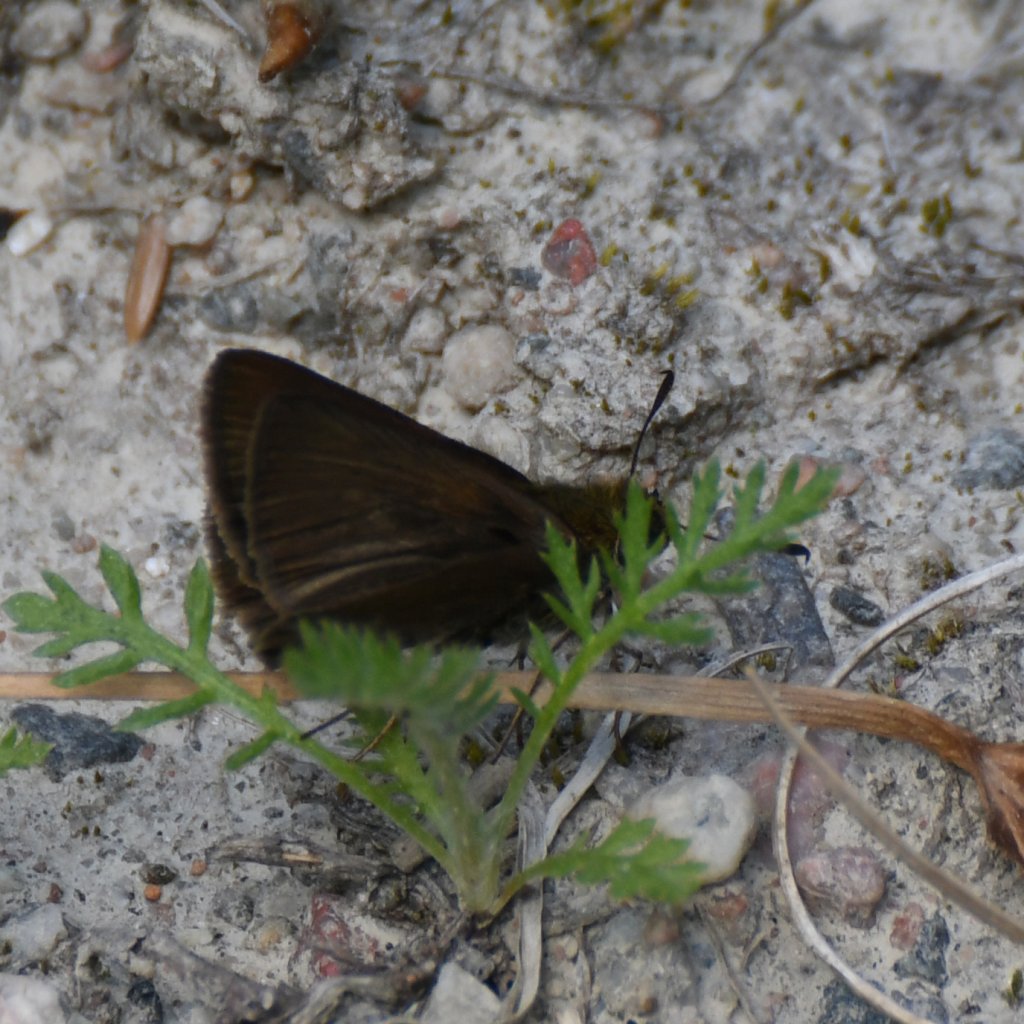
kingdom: Animalia
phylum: Arthropoda
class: Insecta
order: Lepidoptera
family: Hesperiidae
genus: Euphyes
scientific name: Euphyes vestris
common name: Dun Skipper
